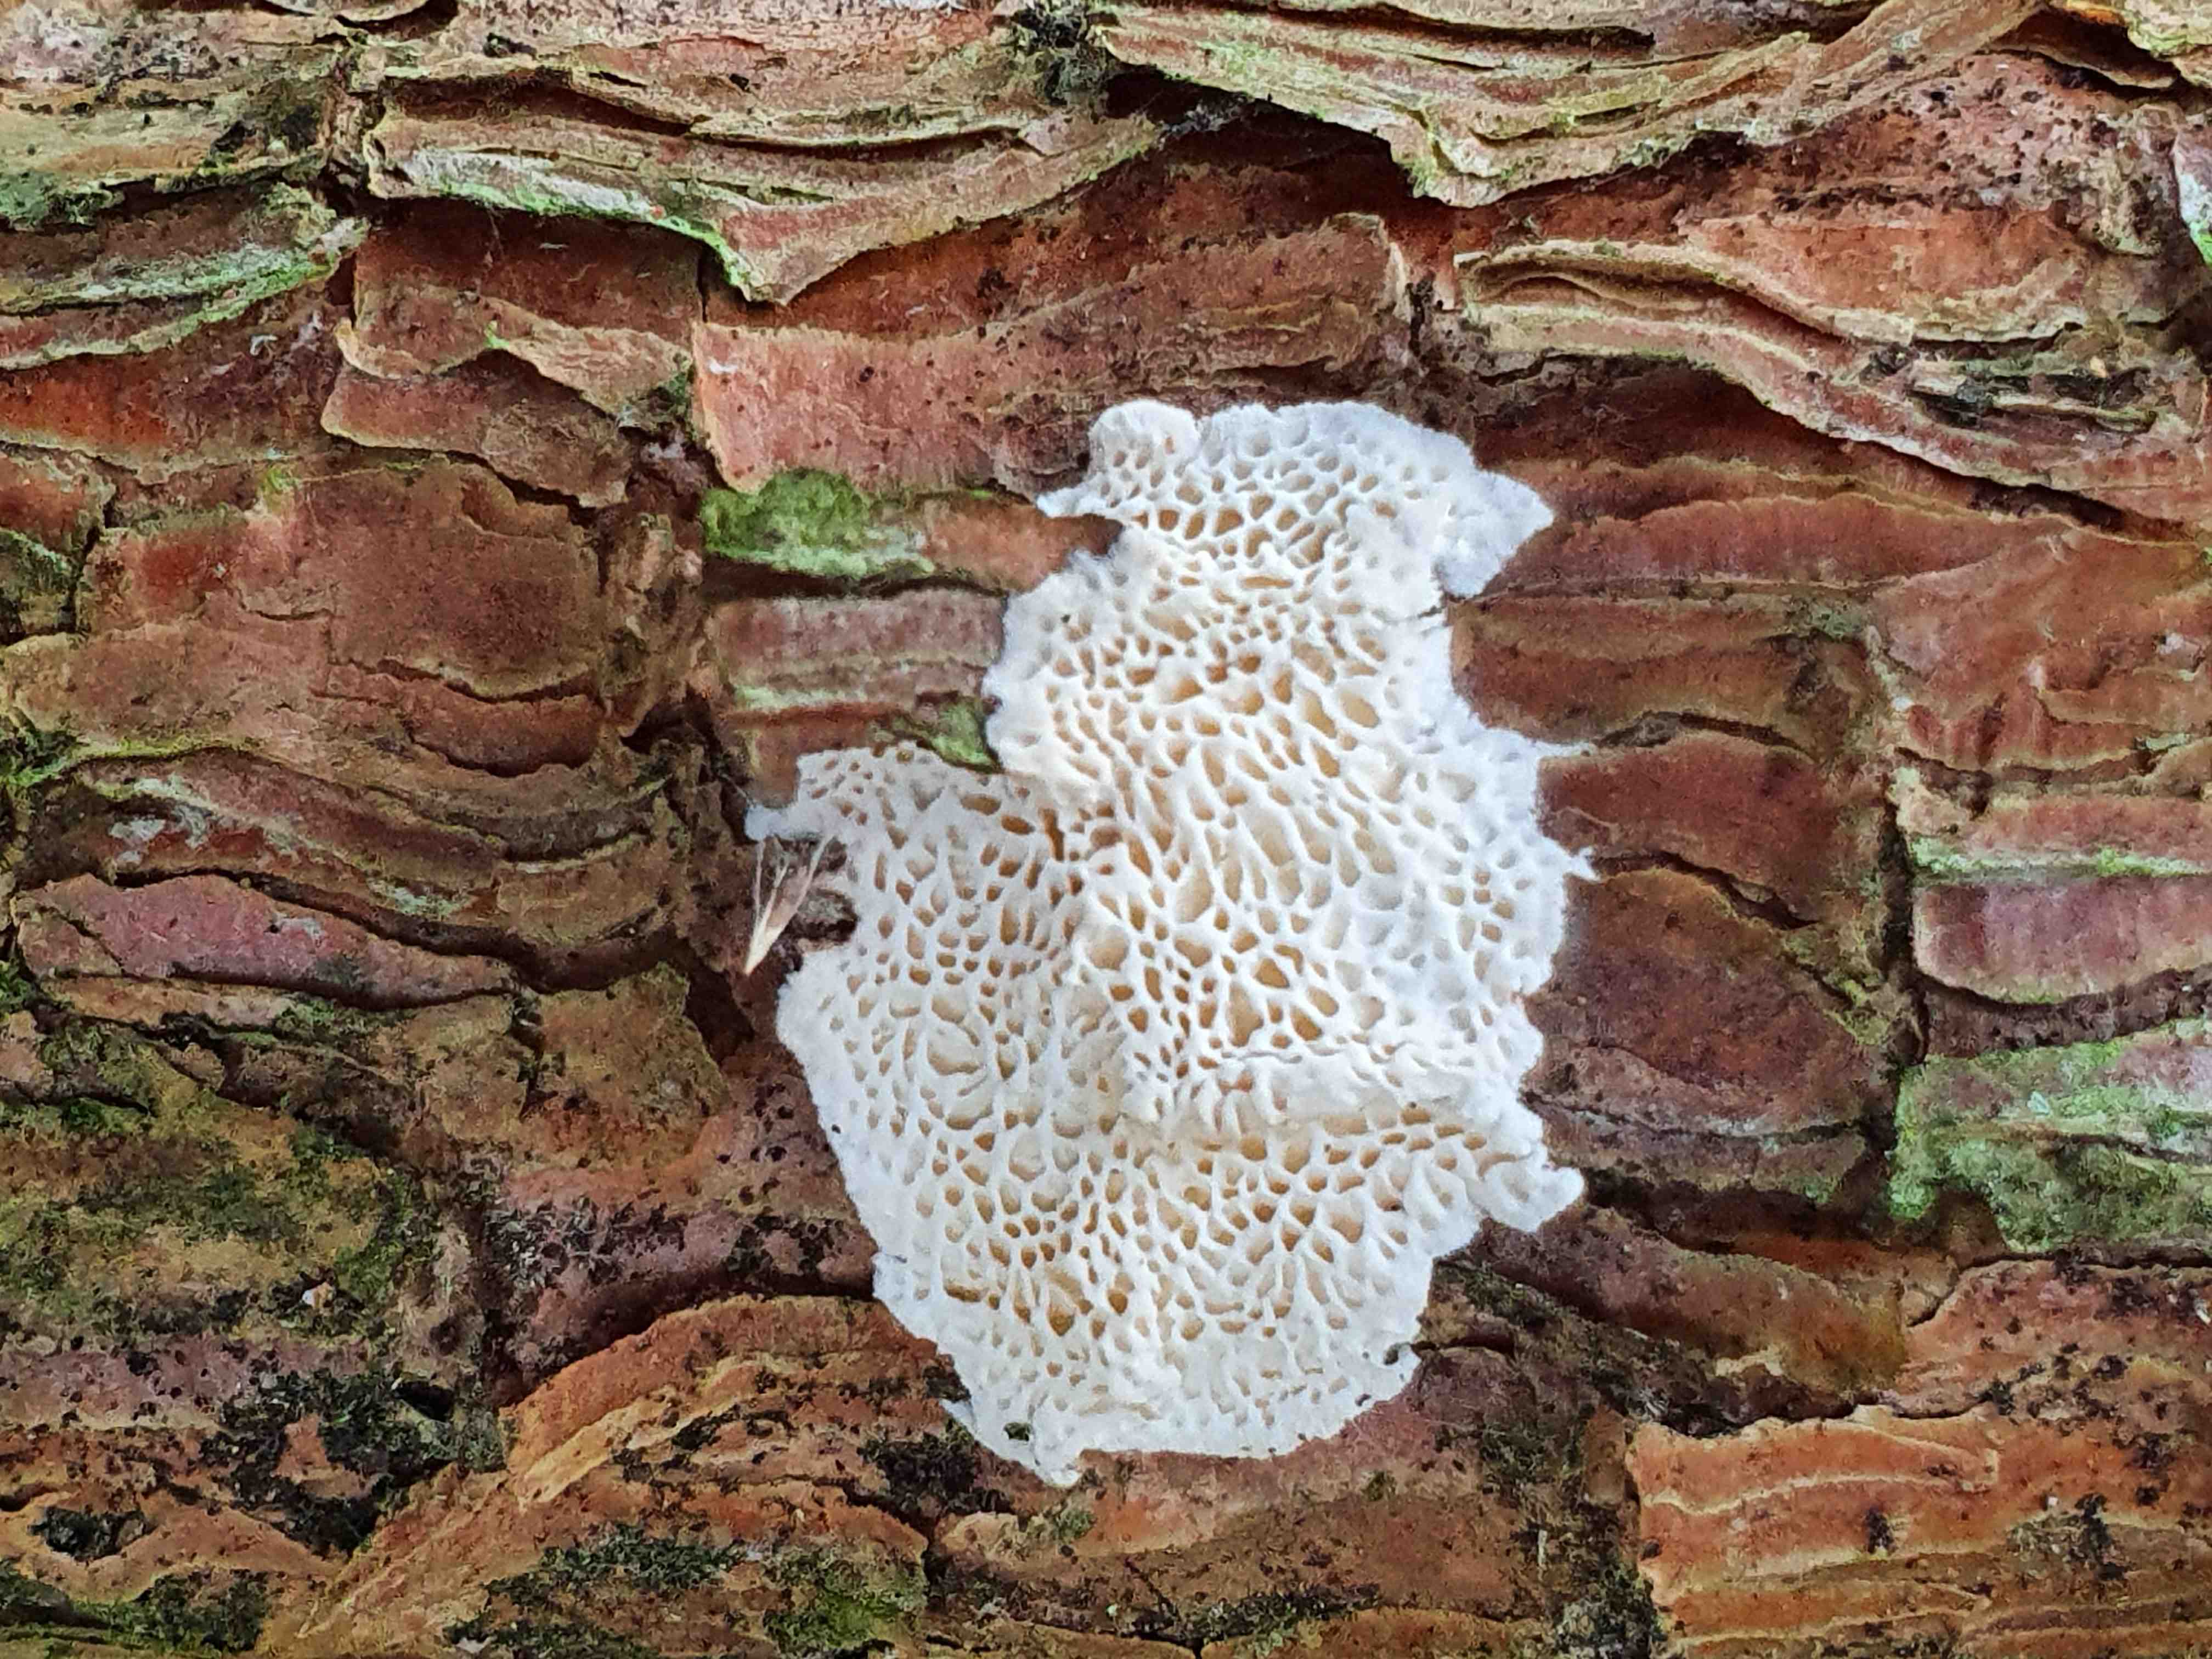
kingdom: Fungi
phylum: Basidiomycota
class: Agaricomycetes
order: Polyporales
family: Fomitopsidaceae
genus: Fomitopsis
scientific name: Fomitopsis
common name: fyrre-skiveporesvamp
